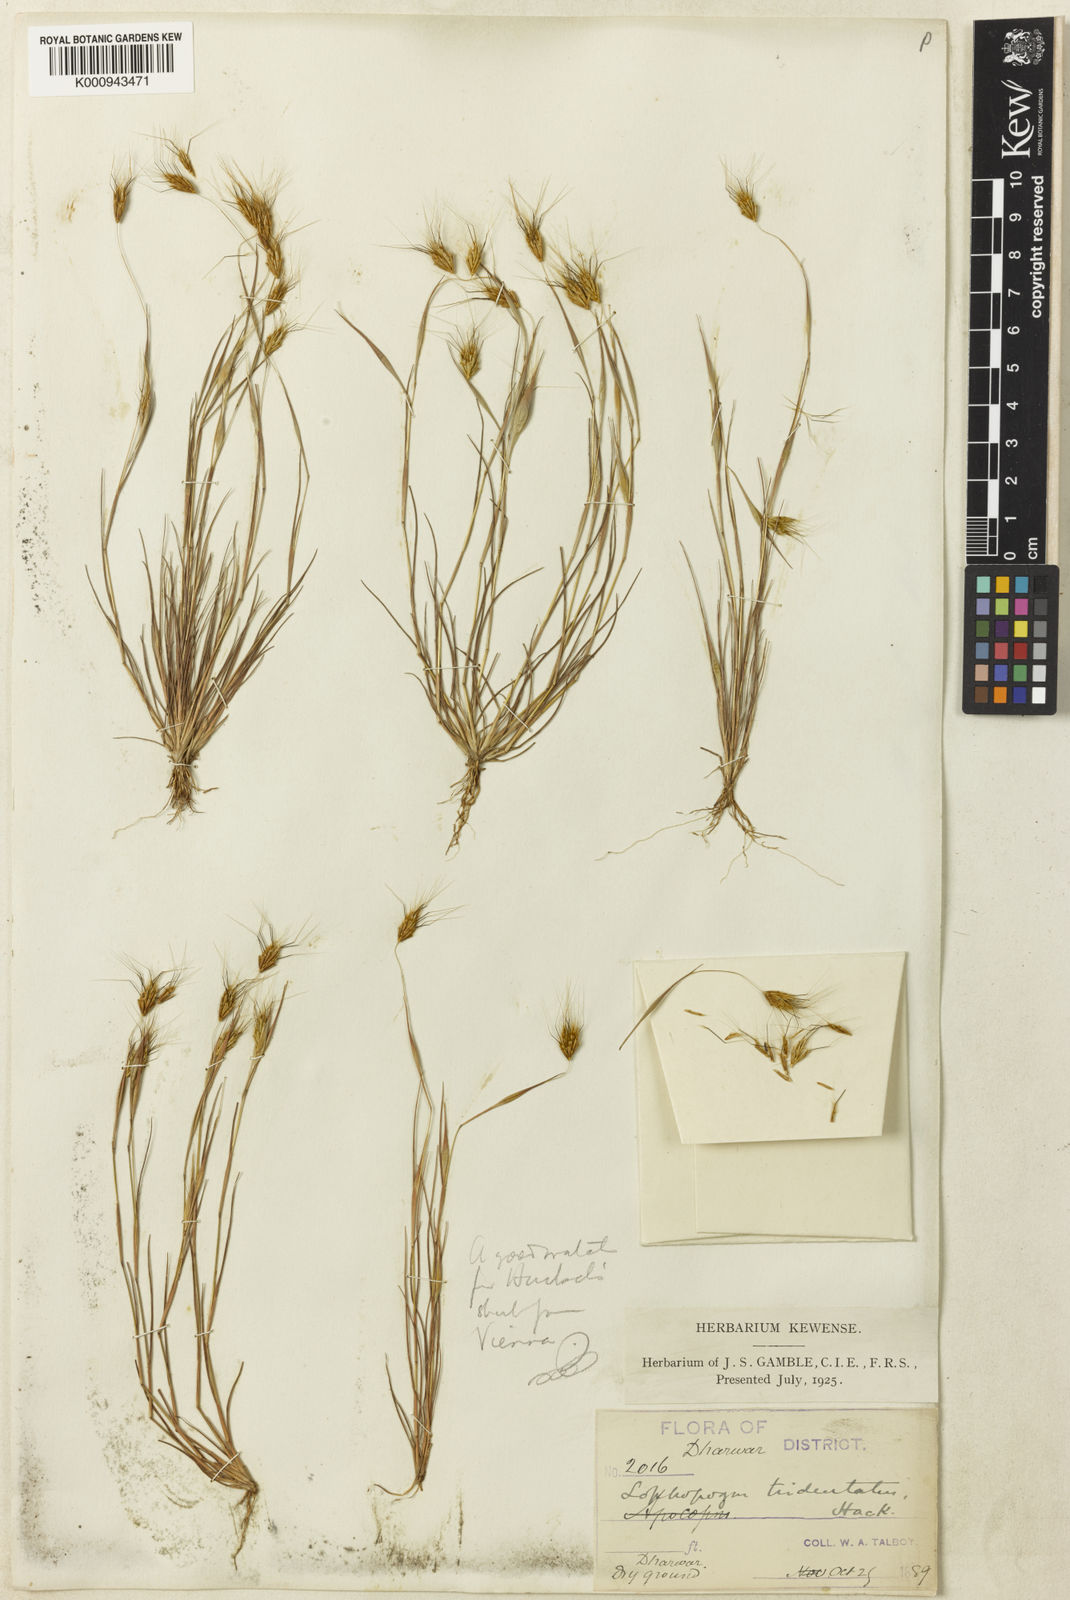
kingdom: Plantae
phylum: Tracheophyta
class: Liliopsida
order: Poales
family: Poaceae
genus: Lophopogon
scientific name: Lophopogon tridentatus
